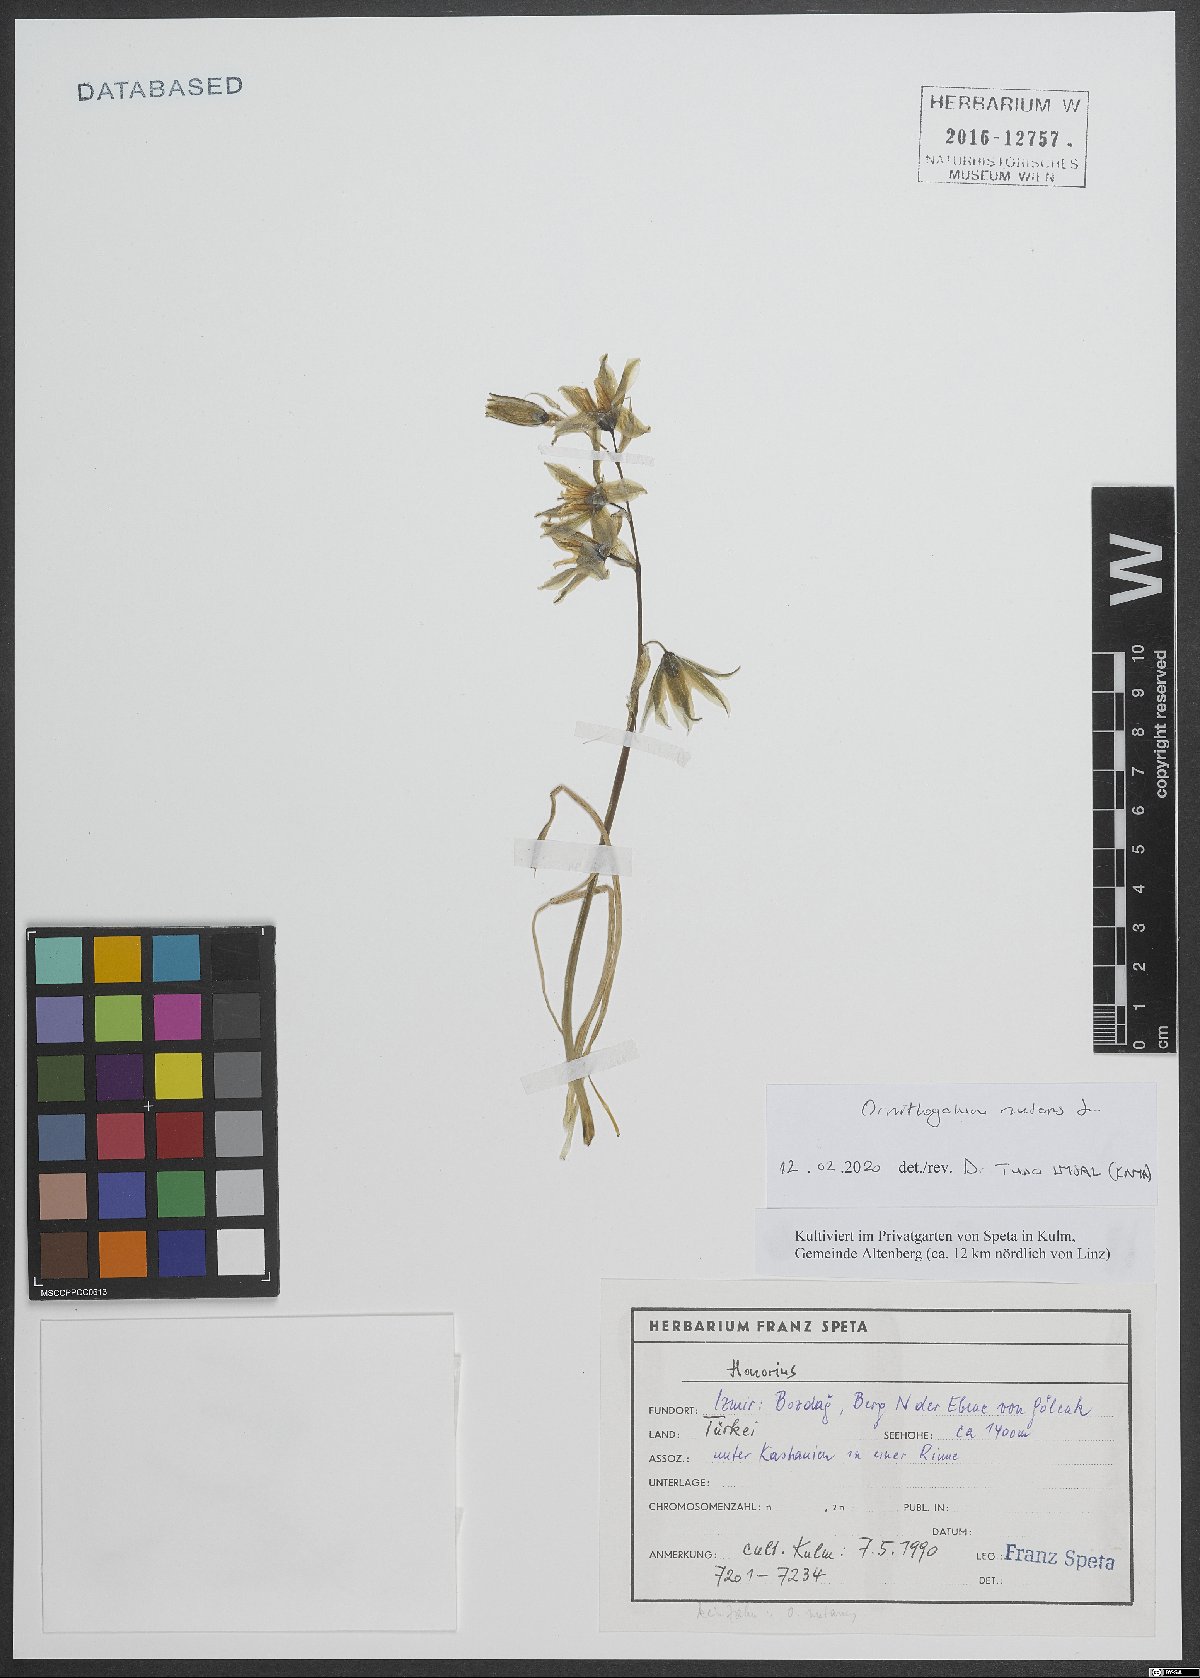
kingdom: Plantae
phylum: Tracheophyta
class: Liliopsida
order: Asparagales
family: Asparagaceae
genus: Ornithogalum
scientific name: Ornithogalum nutans
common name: Drooping star-of-bethlehem
